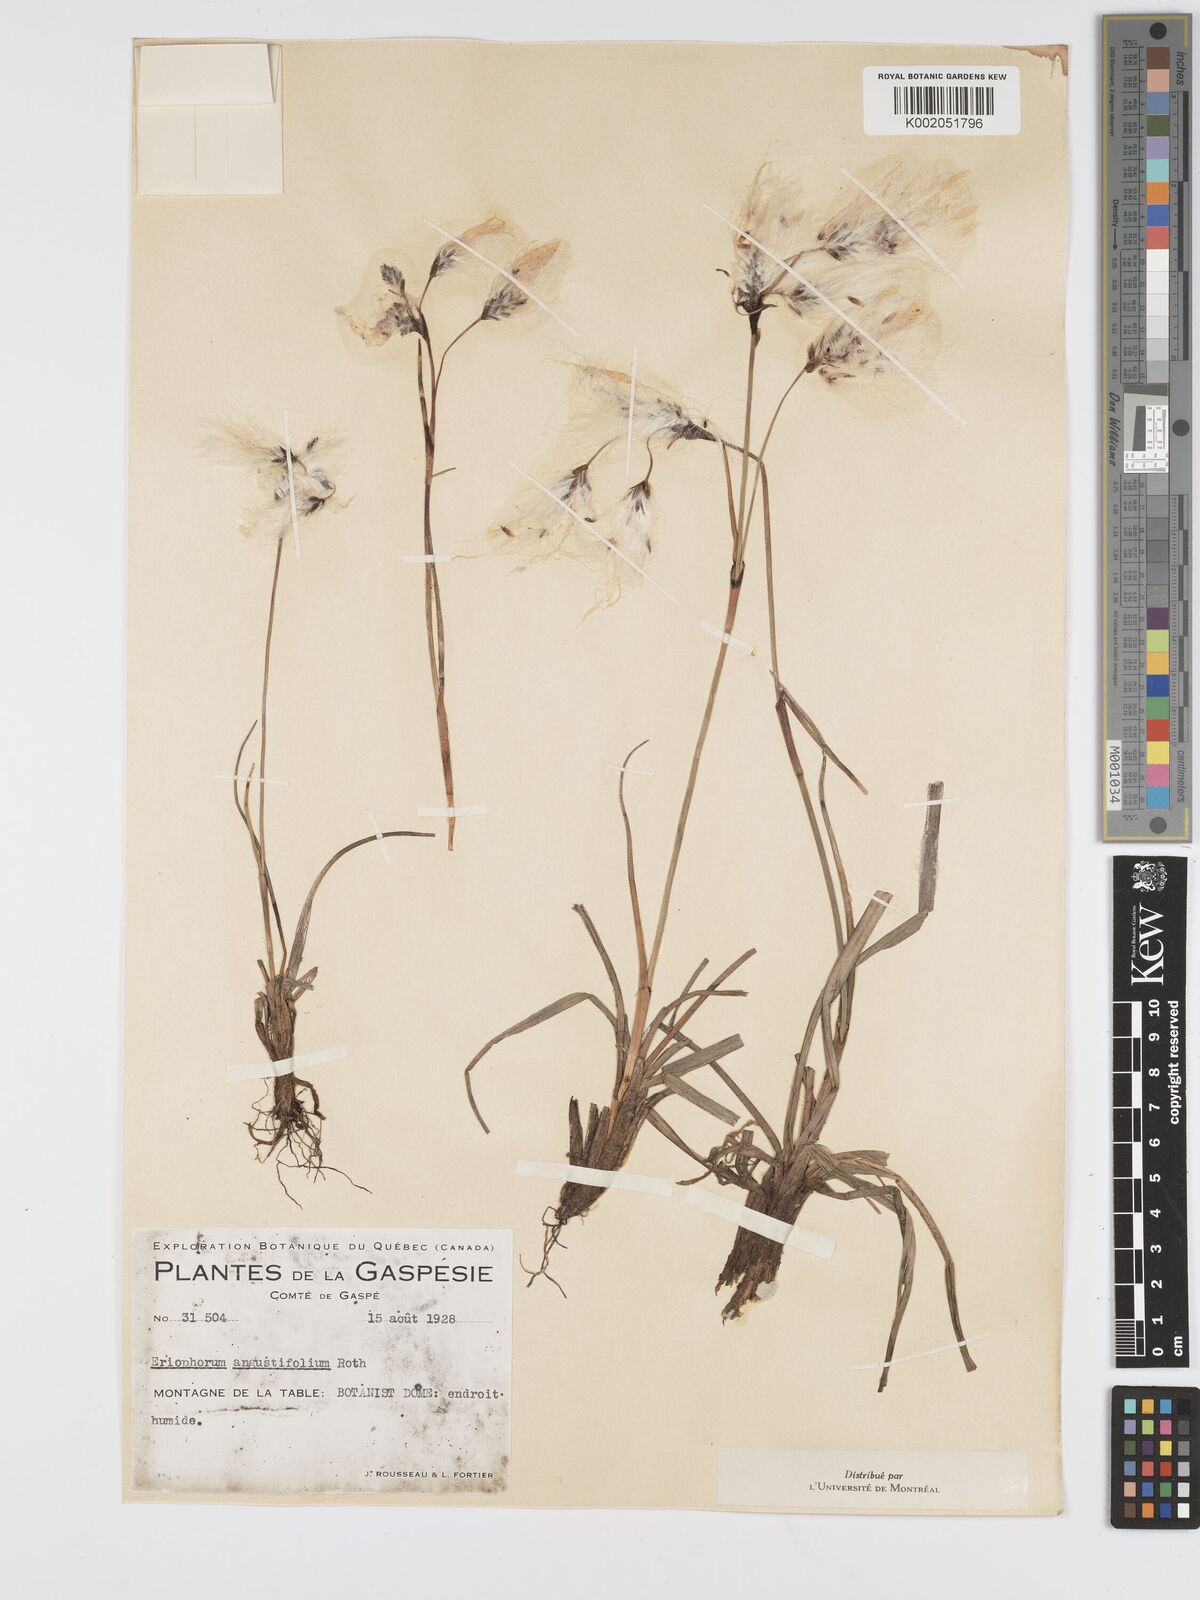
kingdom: Plantae
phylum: Tracheophyta
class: Liliopsida
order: Poales
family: Cyperaceae
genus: Eriophorum
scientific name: Eriophorum angustifolium
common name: Common cottongrass
